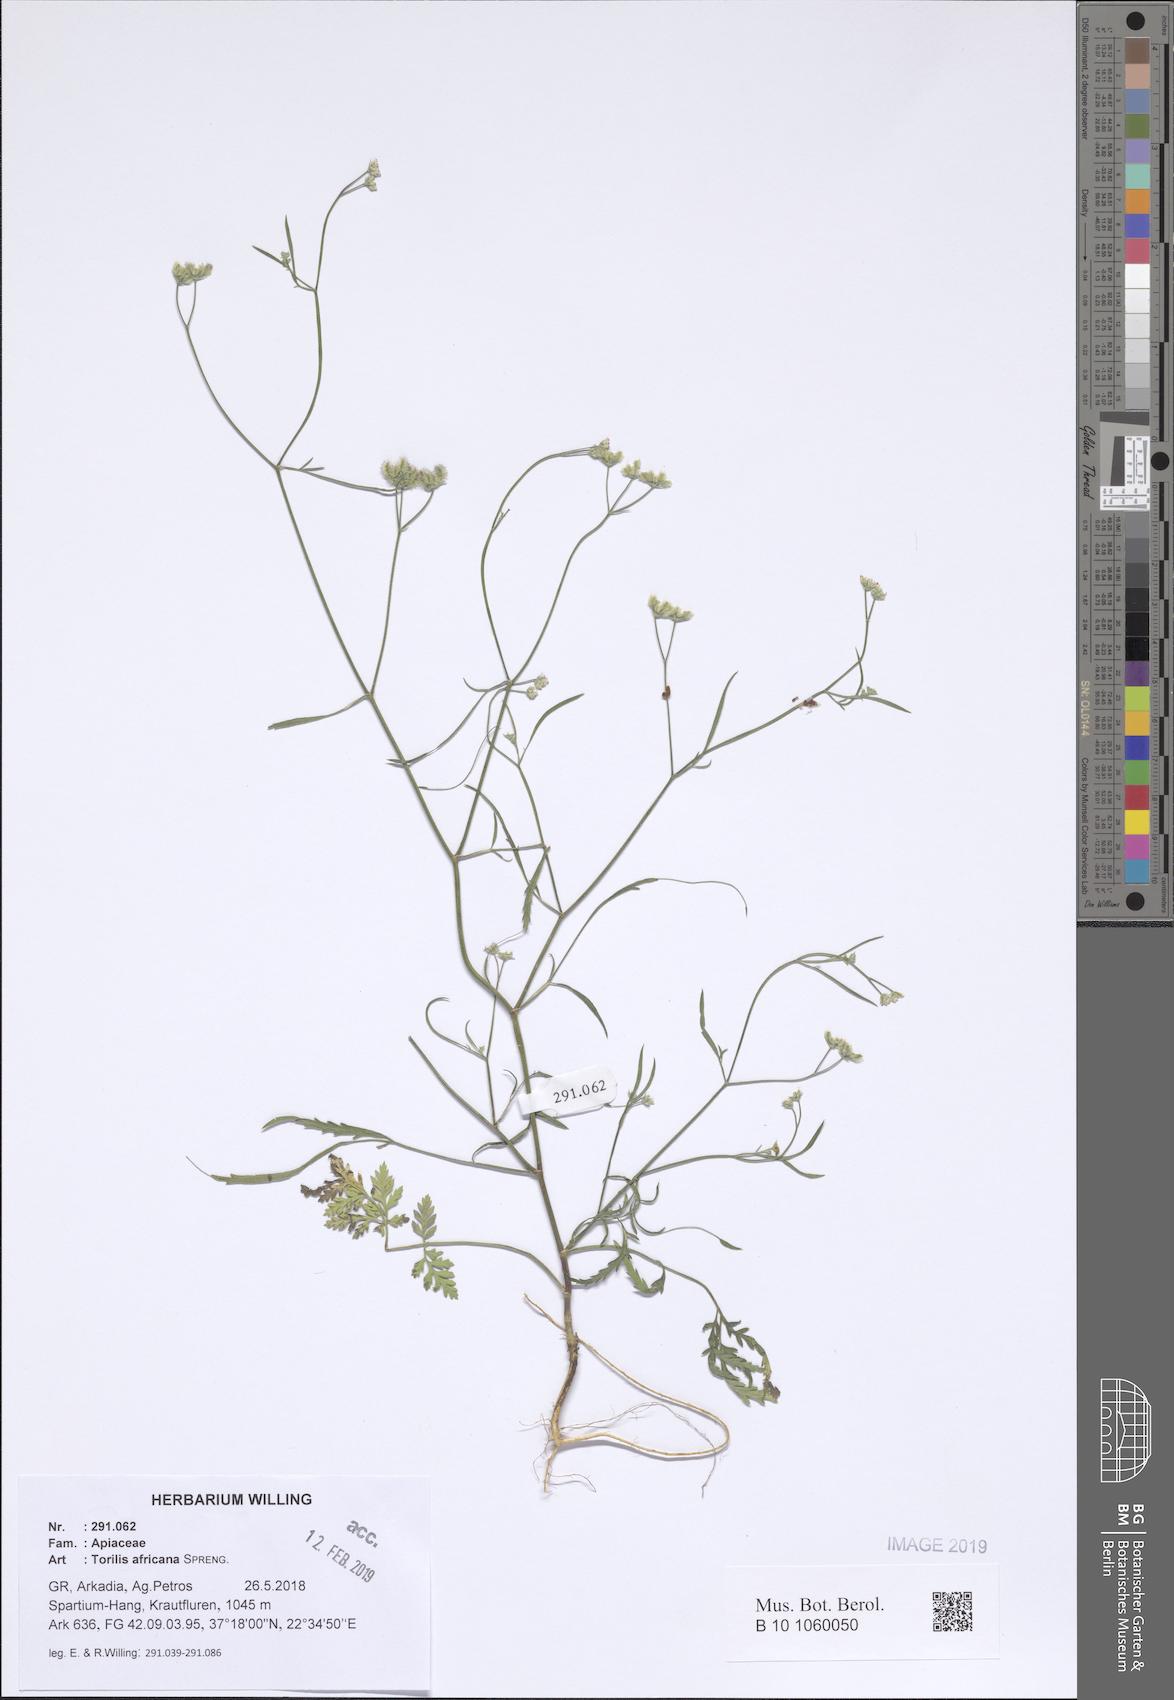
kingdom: Plantae
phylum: Tracheophyta
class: Magnoliopsida
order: Apiales
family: Apiaceae
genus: Torilis
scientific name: Torilis africana
